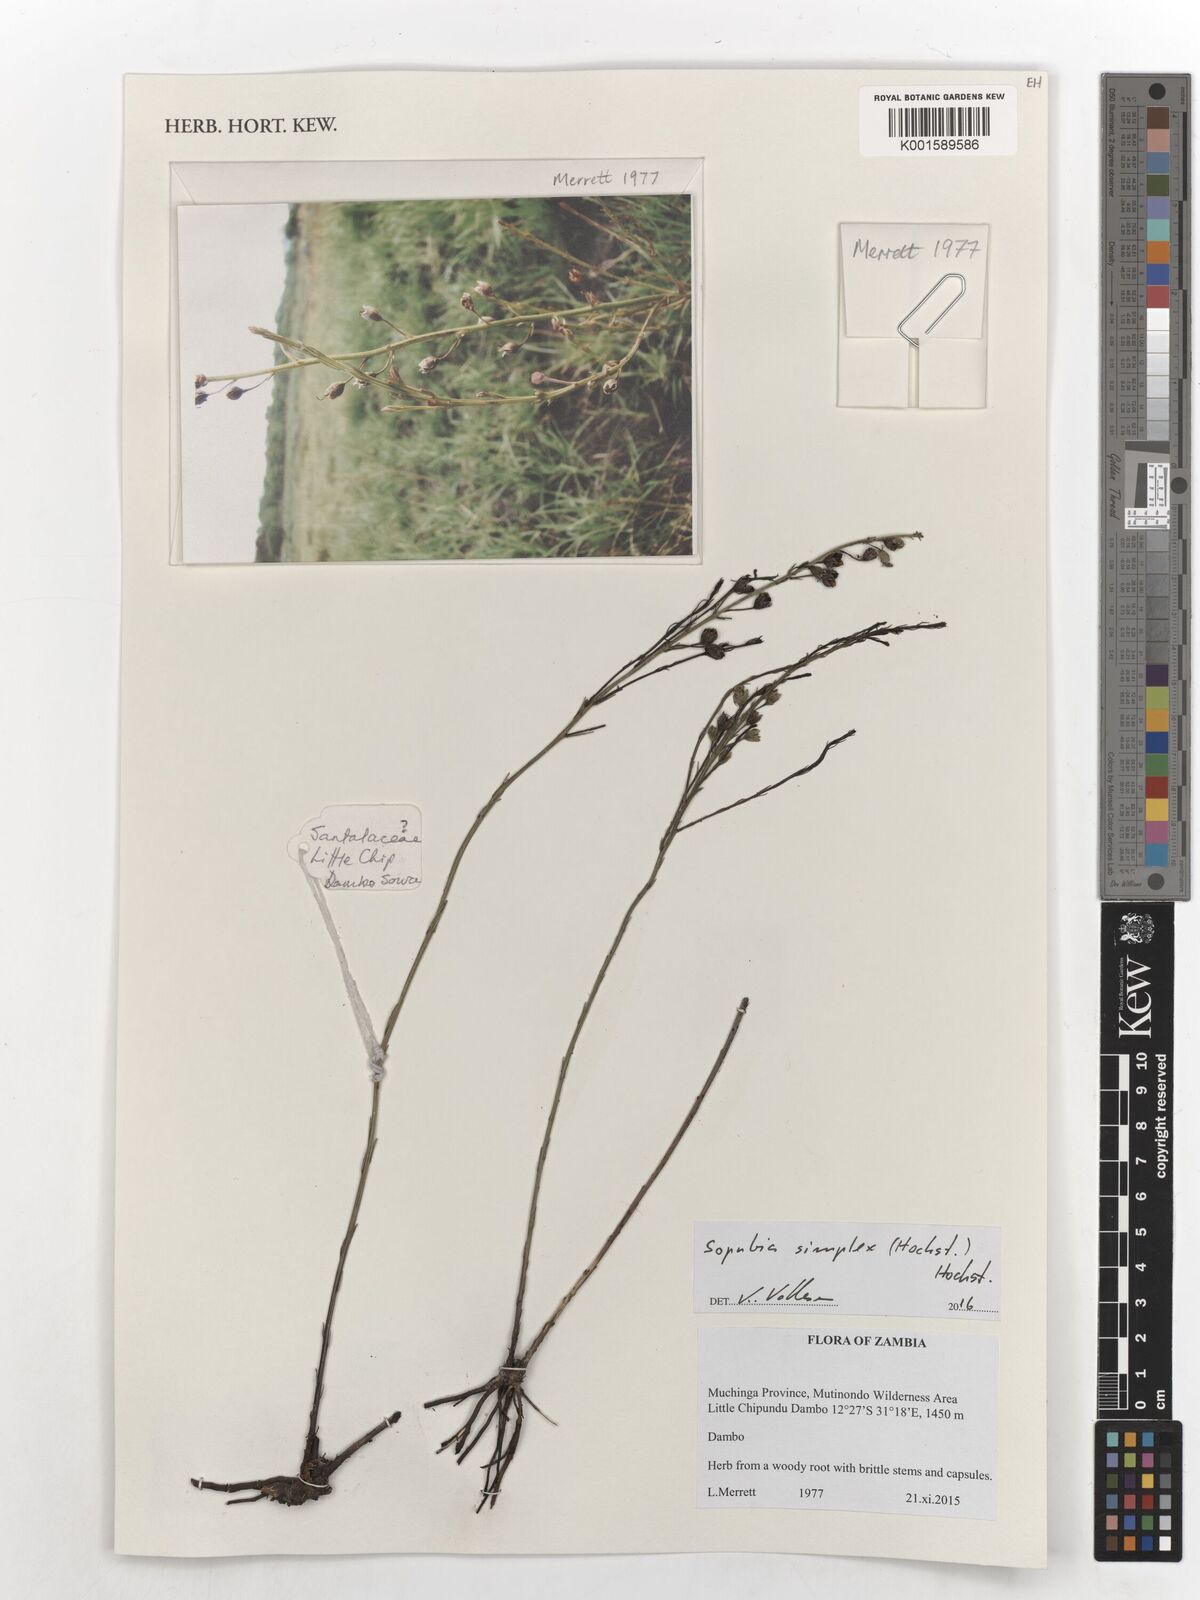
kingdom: Plantae
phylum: Tracheophyta
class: Magnoliopsida
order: Lamiales
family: Orobanchaceae
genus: Sopubia
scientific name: Sopubia simplex
